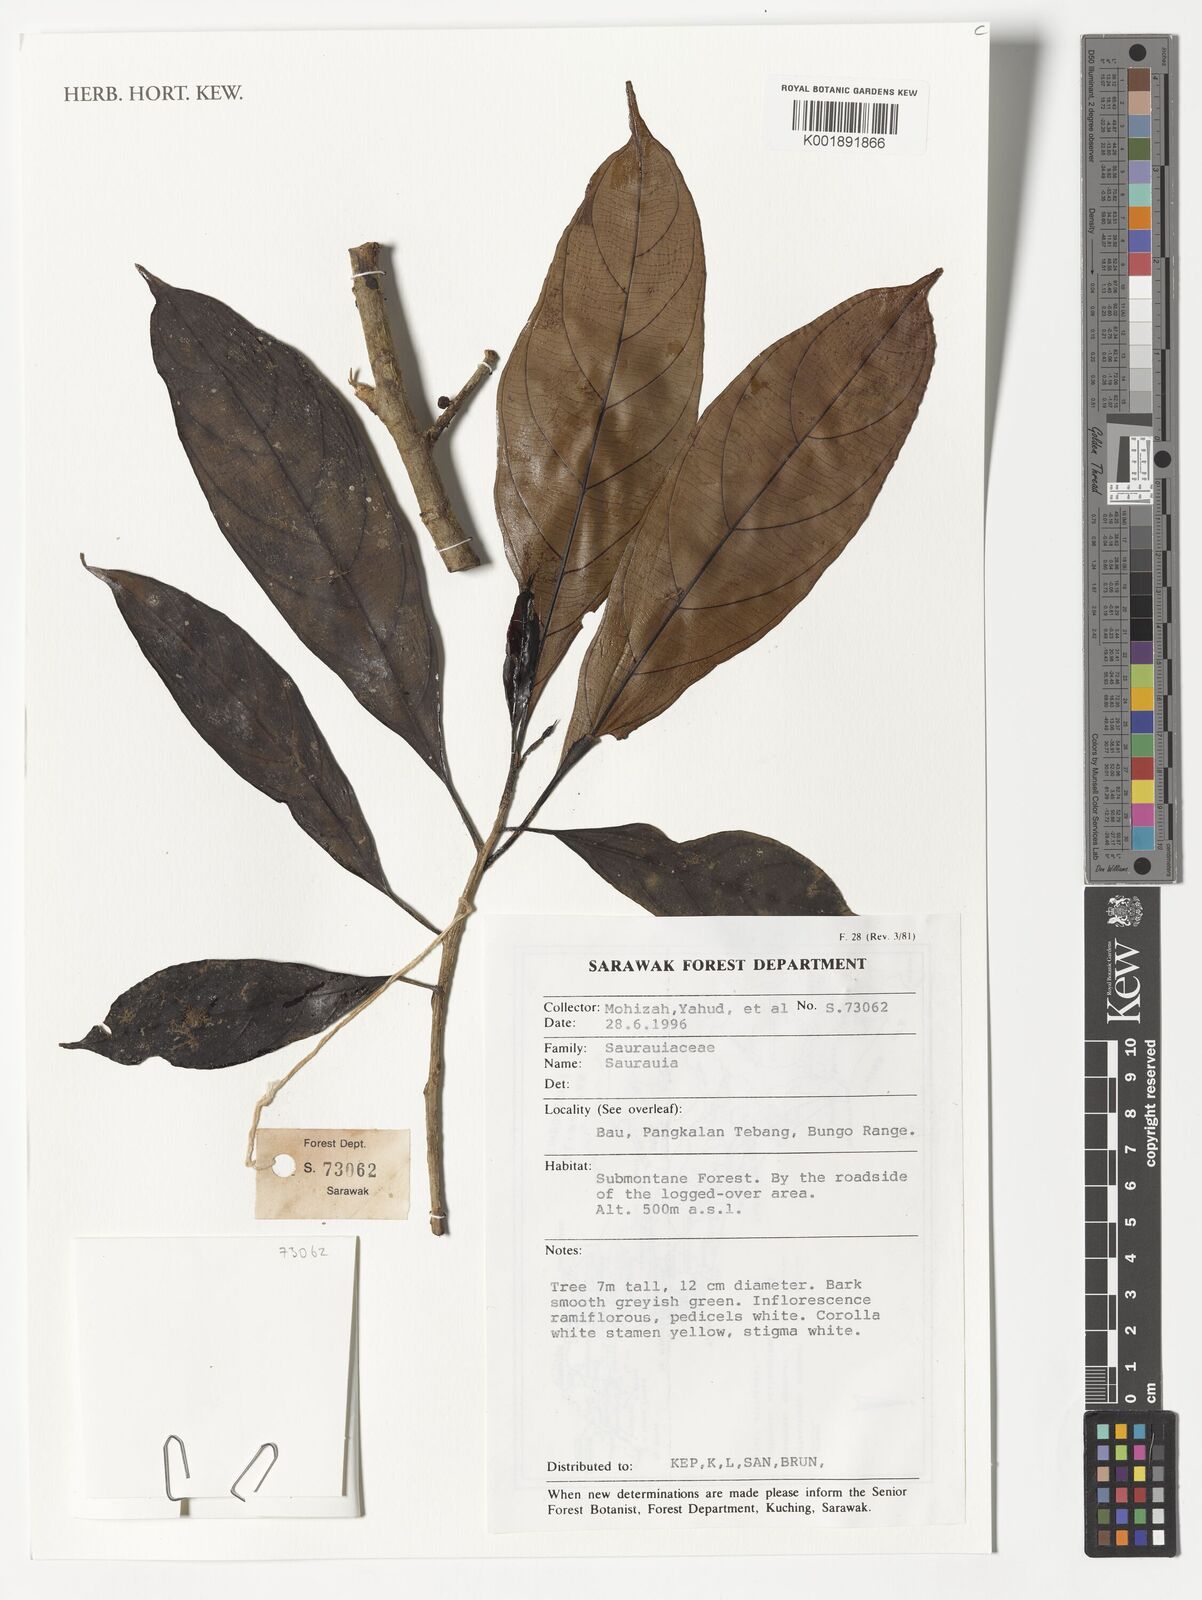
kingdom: Plantae
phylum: Tracheophyta
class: Magnoliopsida
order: Ericales
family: Actinidiaceae
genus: Saurauia
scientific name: Saurauia
